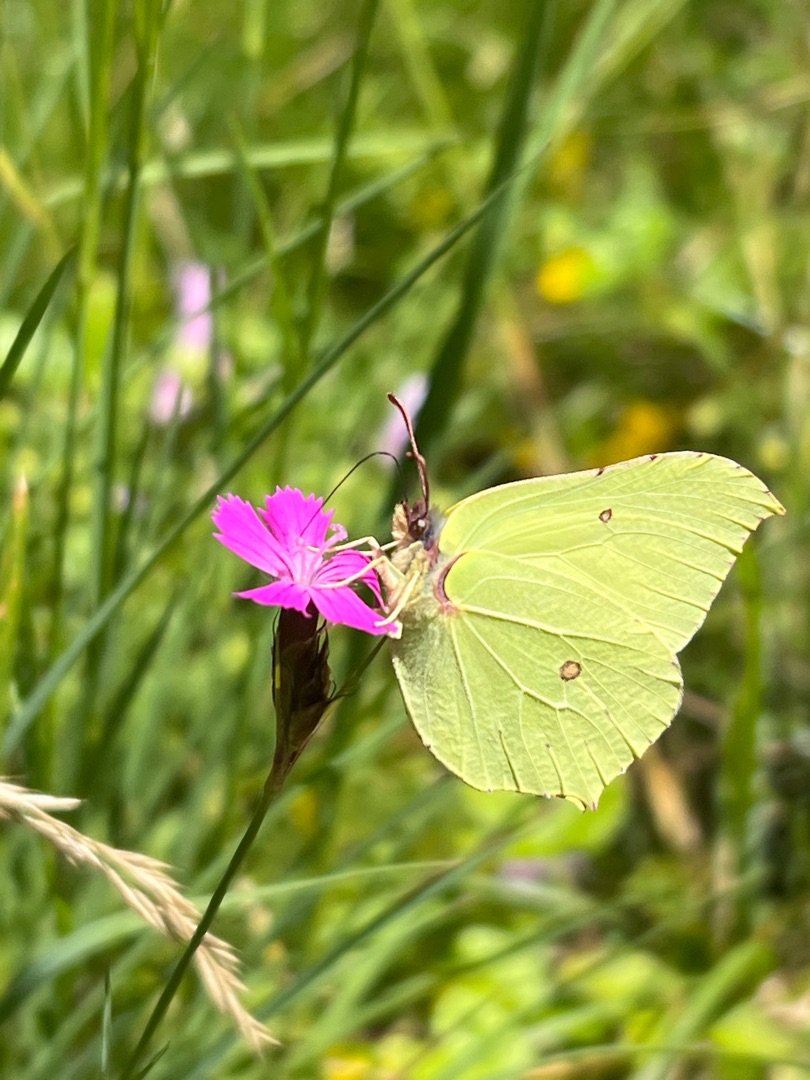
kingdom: Animalia
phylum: Arthropoda
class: Insecta
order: Lepidoptera
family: Pieridae
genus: Gonepteryx
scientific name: Gonepteryx rhamni
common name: Citronsommerfugl
